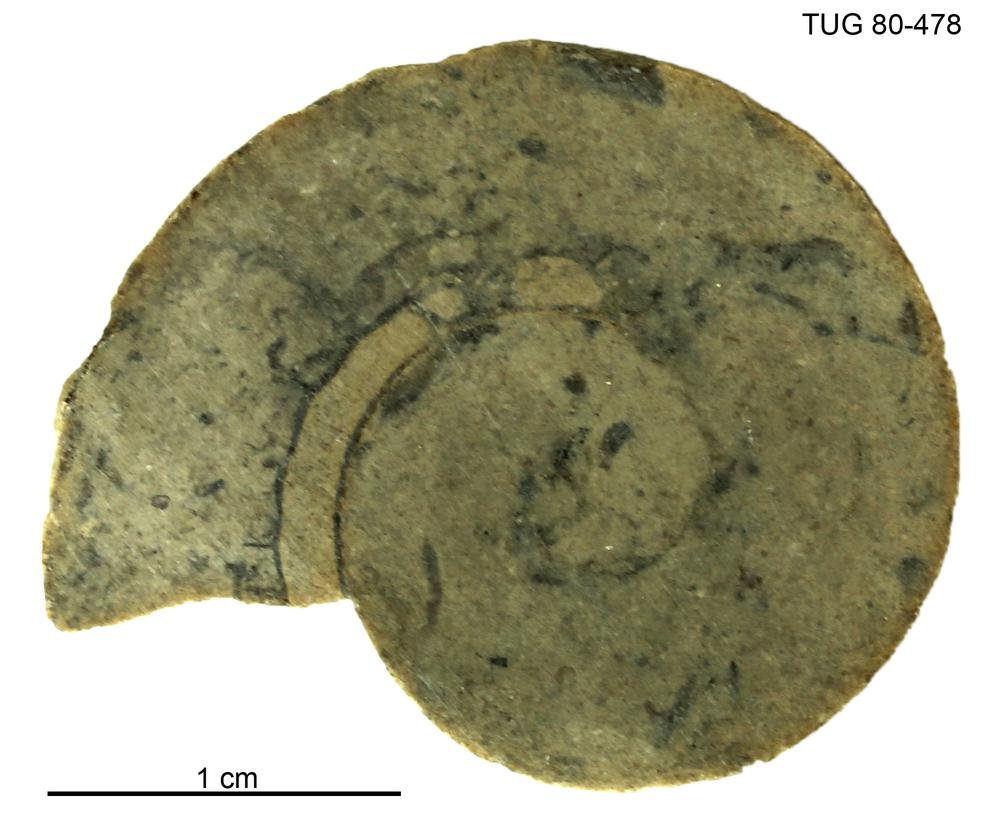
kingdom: Animalia
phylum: Mollusca
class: Cephalopoda
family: Trocholitidae
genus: Discoceras
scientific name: Discoceras Rectanguloceras balaschovi
